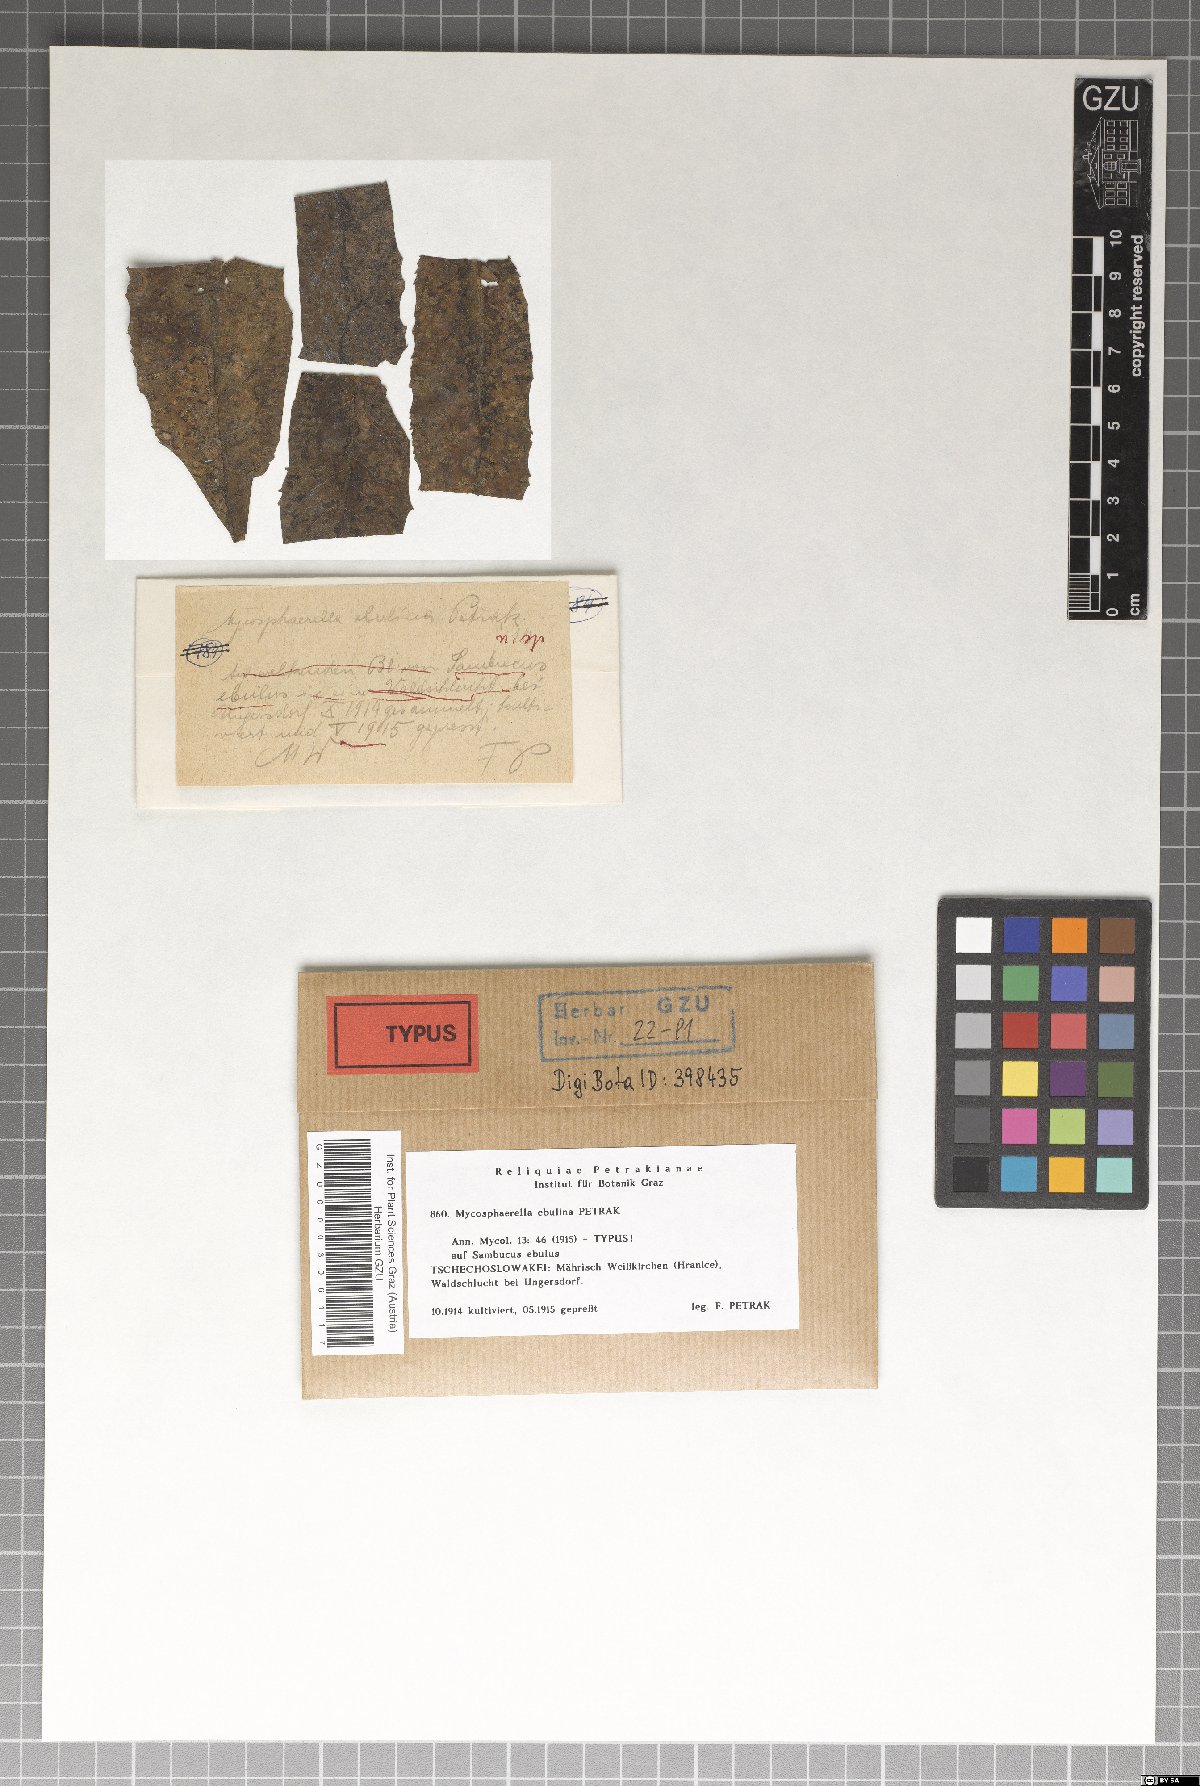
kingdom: Fungi
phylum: Ascomycota
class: Dothideomycetes
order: Mycosphaerellales
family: Mycosphaerellaceae
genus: Mycosphaerella
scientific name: Mycosphaerella ebulina
